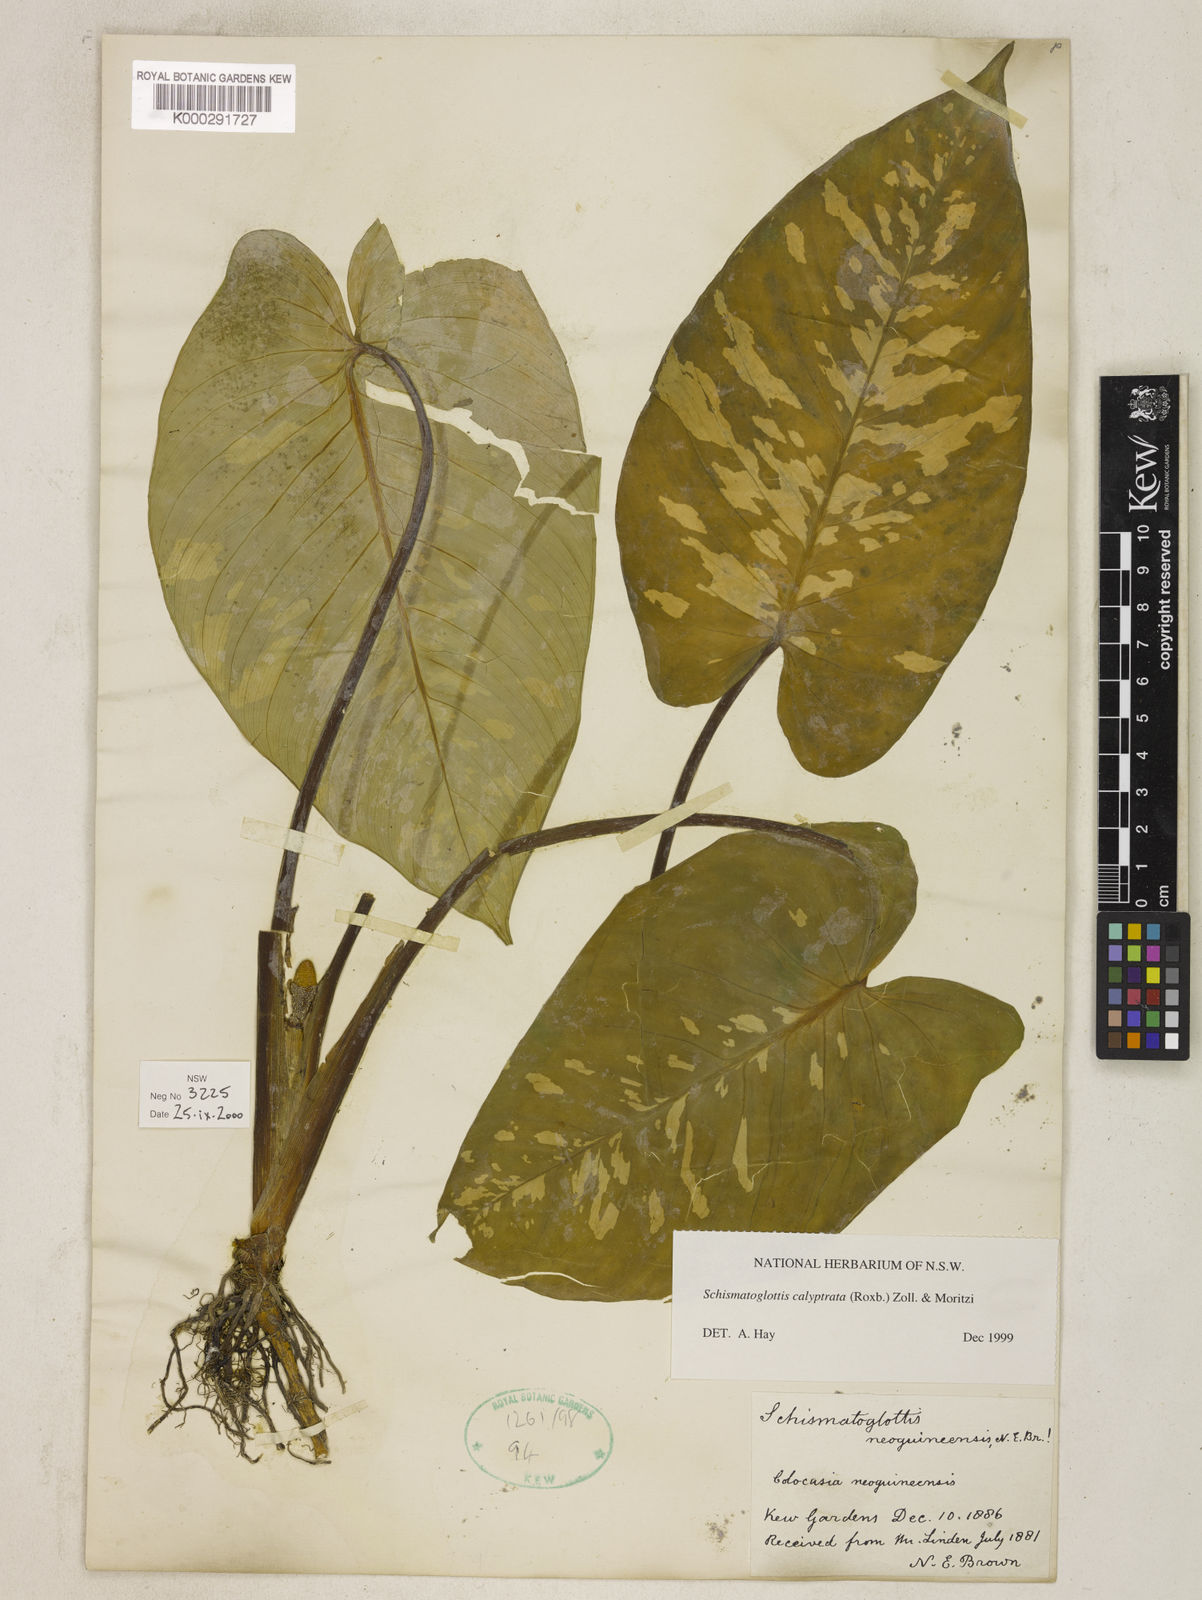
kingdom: Plantae
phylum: Tracheophyta
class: Liliopsida
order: Alismatales
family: Araceae
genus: Schismatoglottis
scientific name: Schismatoglottis calyptrata
